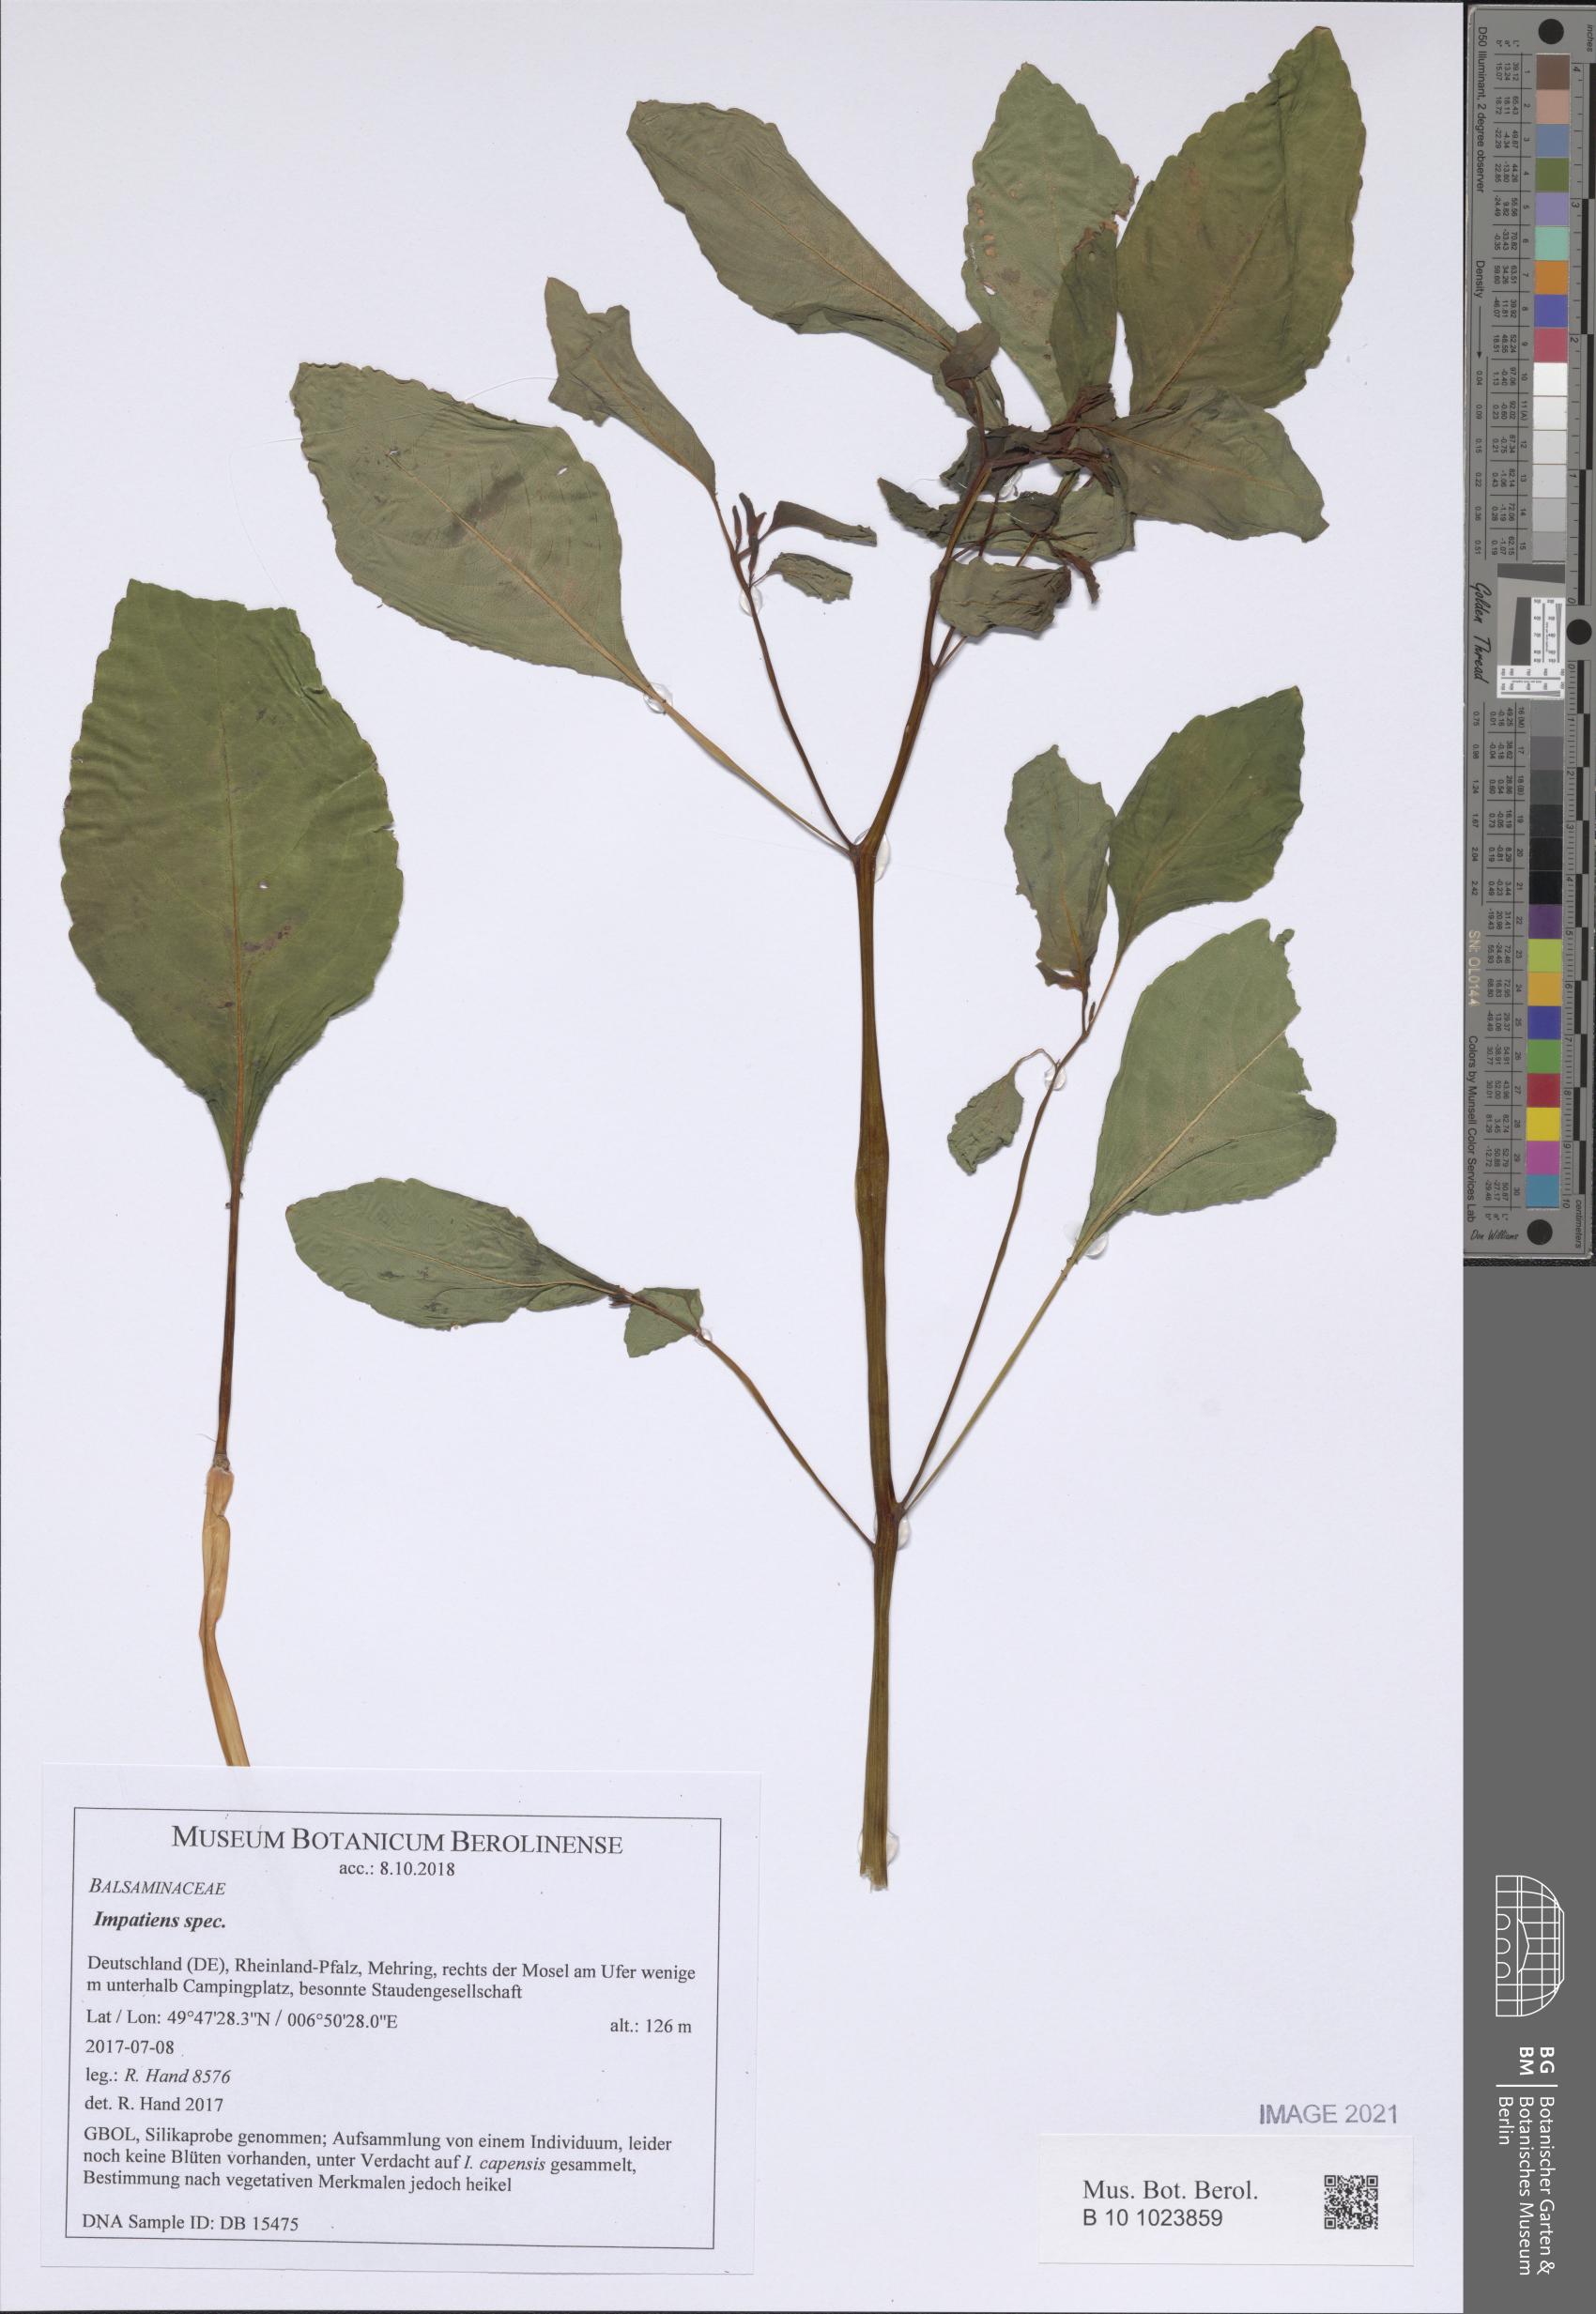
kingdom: Plantae
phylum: Tracheophyta
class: Magnoliopsida
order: Ericales
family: Balsaminaceae
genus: Impatiens
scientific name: Impatiens
